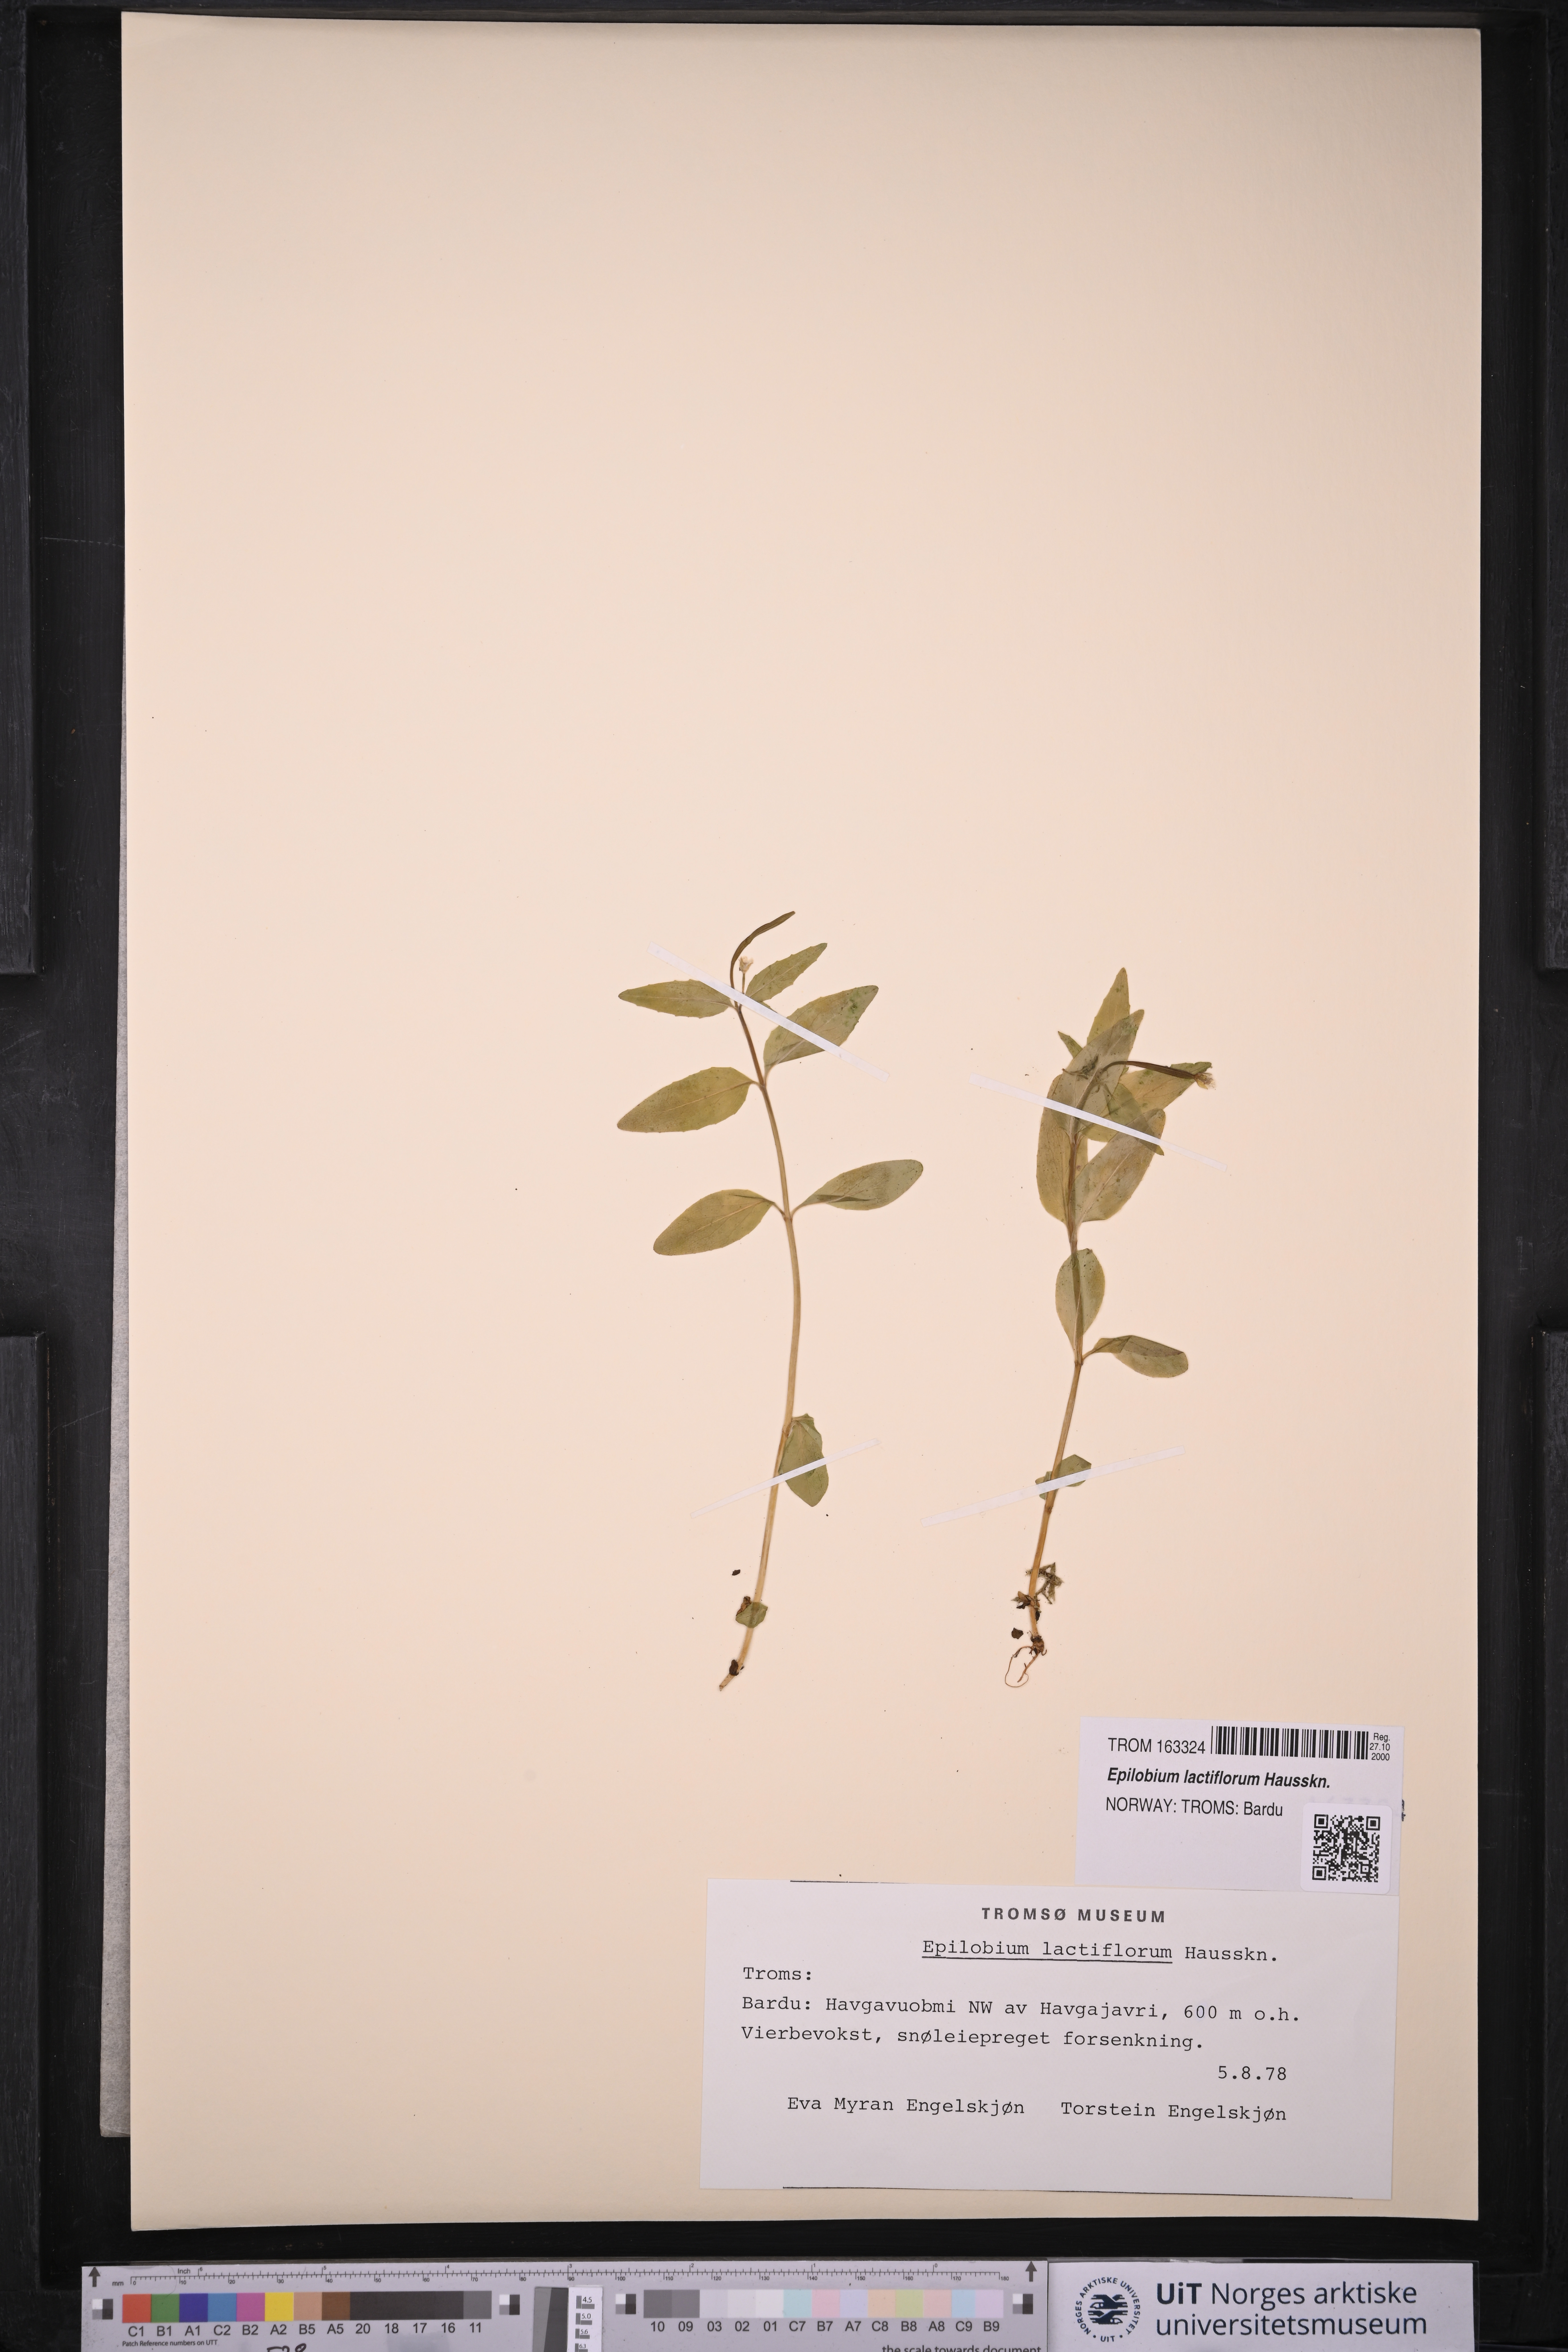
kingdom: Plantae
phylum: Tracheophyta
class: Magnoliopsida
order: Myrtales
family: Onagraceae
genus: Epilobium
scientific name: Epilobium lactiflorum
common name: Milkflower willowherb
